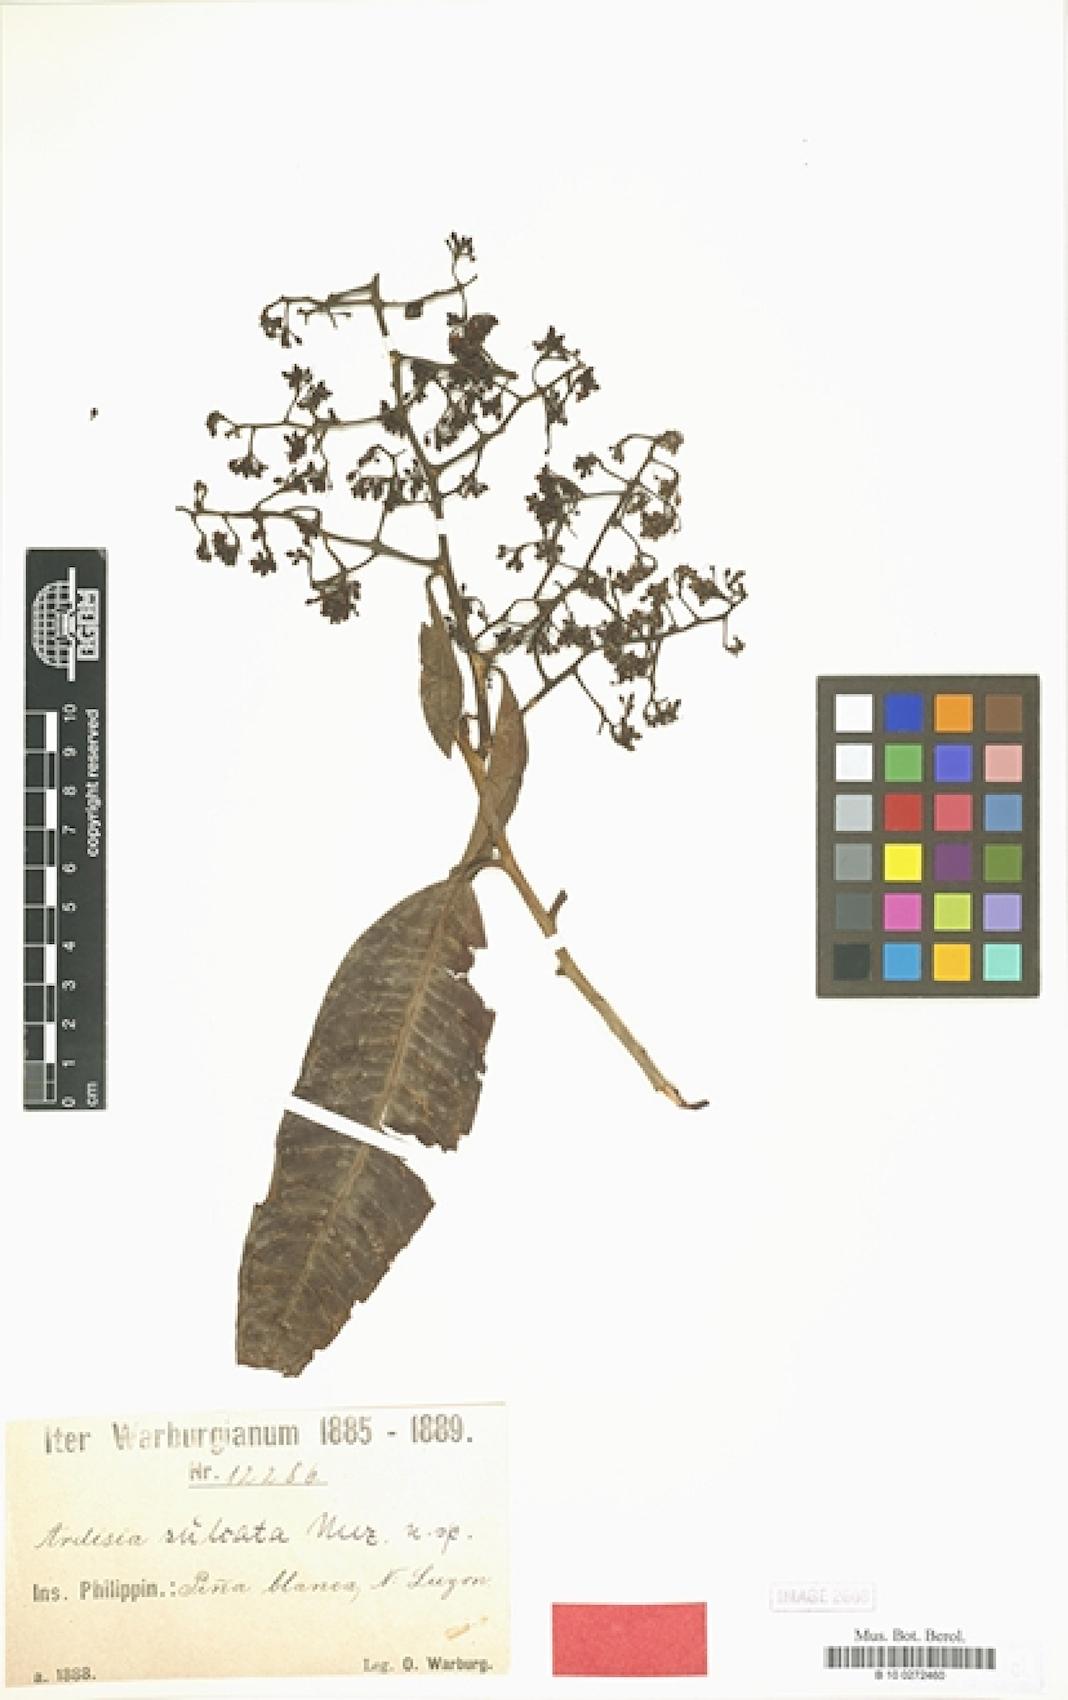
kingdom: Plantae
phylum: Tracheophyta
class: Magnoliopsida
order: Ericales
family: Primulaceae
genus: Ardisia
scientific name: Ardisia sulcata
